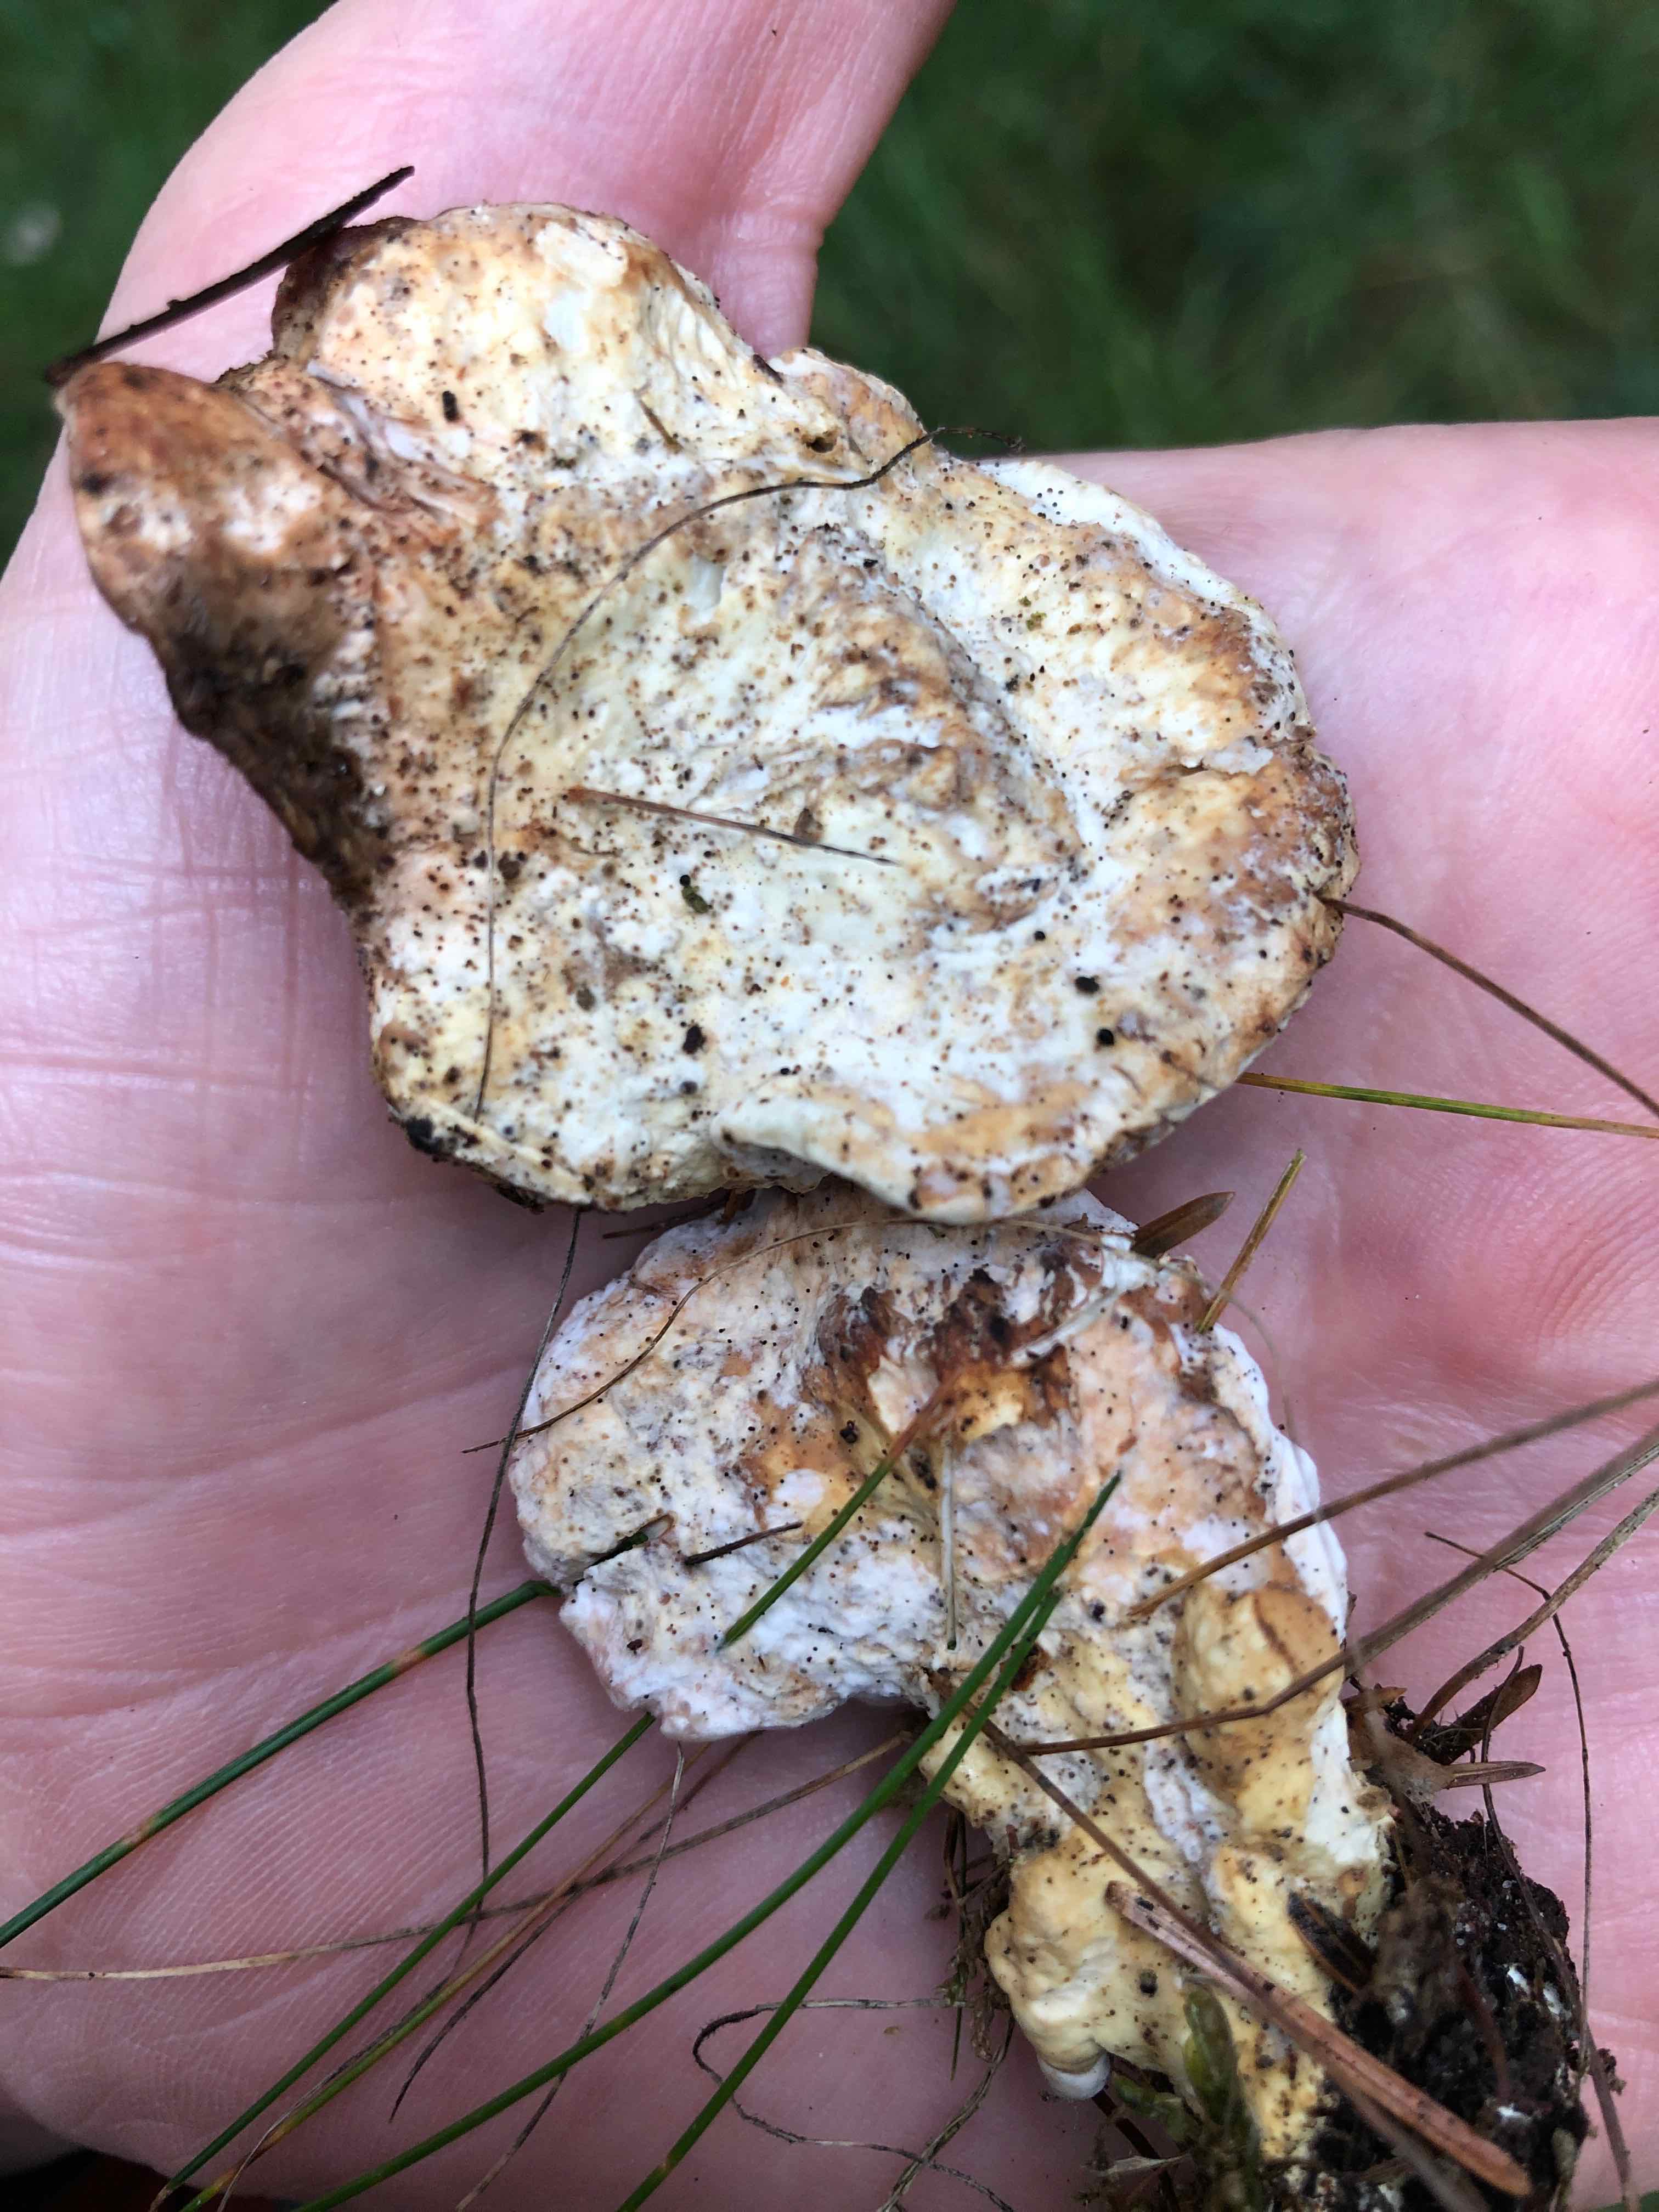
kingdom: Fungi
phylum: Basidiomycota
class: Agaricomycetes
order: Polyporales
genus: Calcipostia
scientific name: Calcipostia guttulata
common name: dråbe-kødporesvamp
